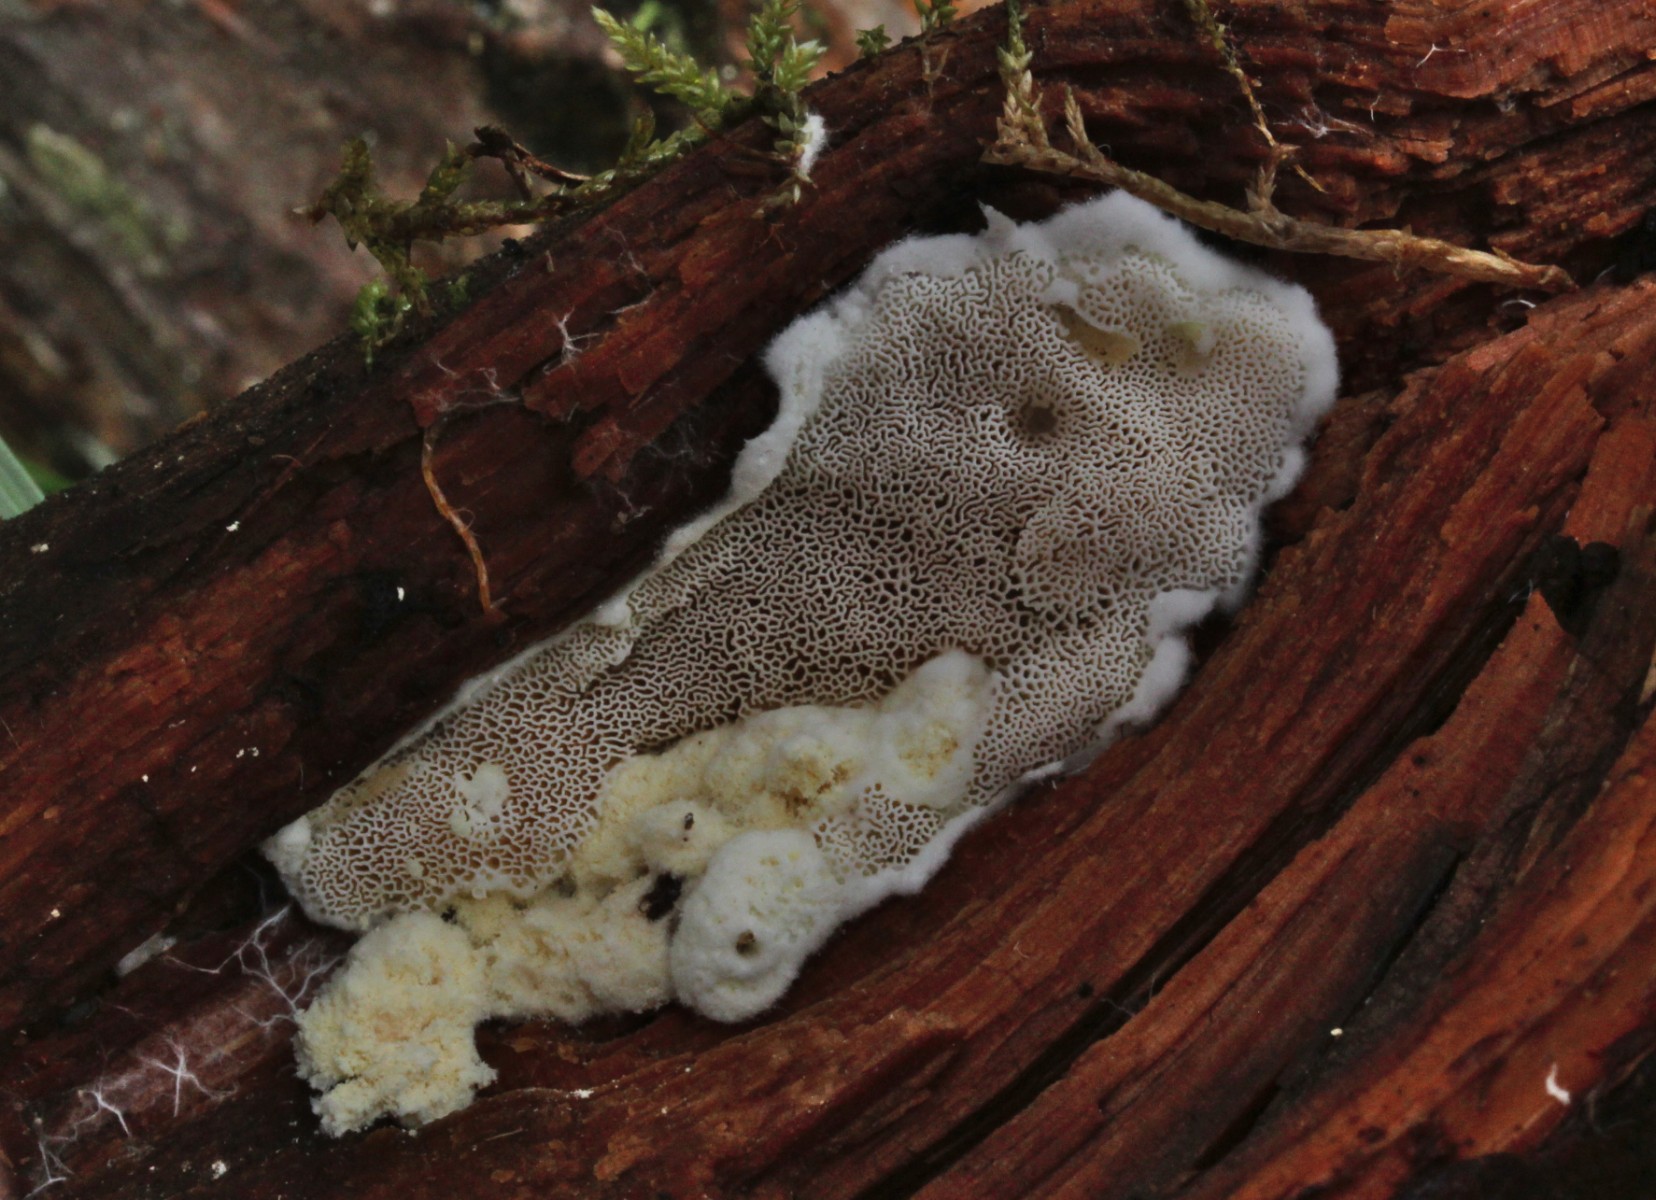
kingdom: Fungi
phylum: Basidiomycota
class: Agaricomycetes
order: Polyporales
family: Dacryobolaceae
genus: Oligoporus
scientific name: Oligoporus rennyi
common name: pudret kødporesvamp
